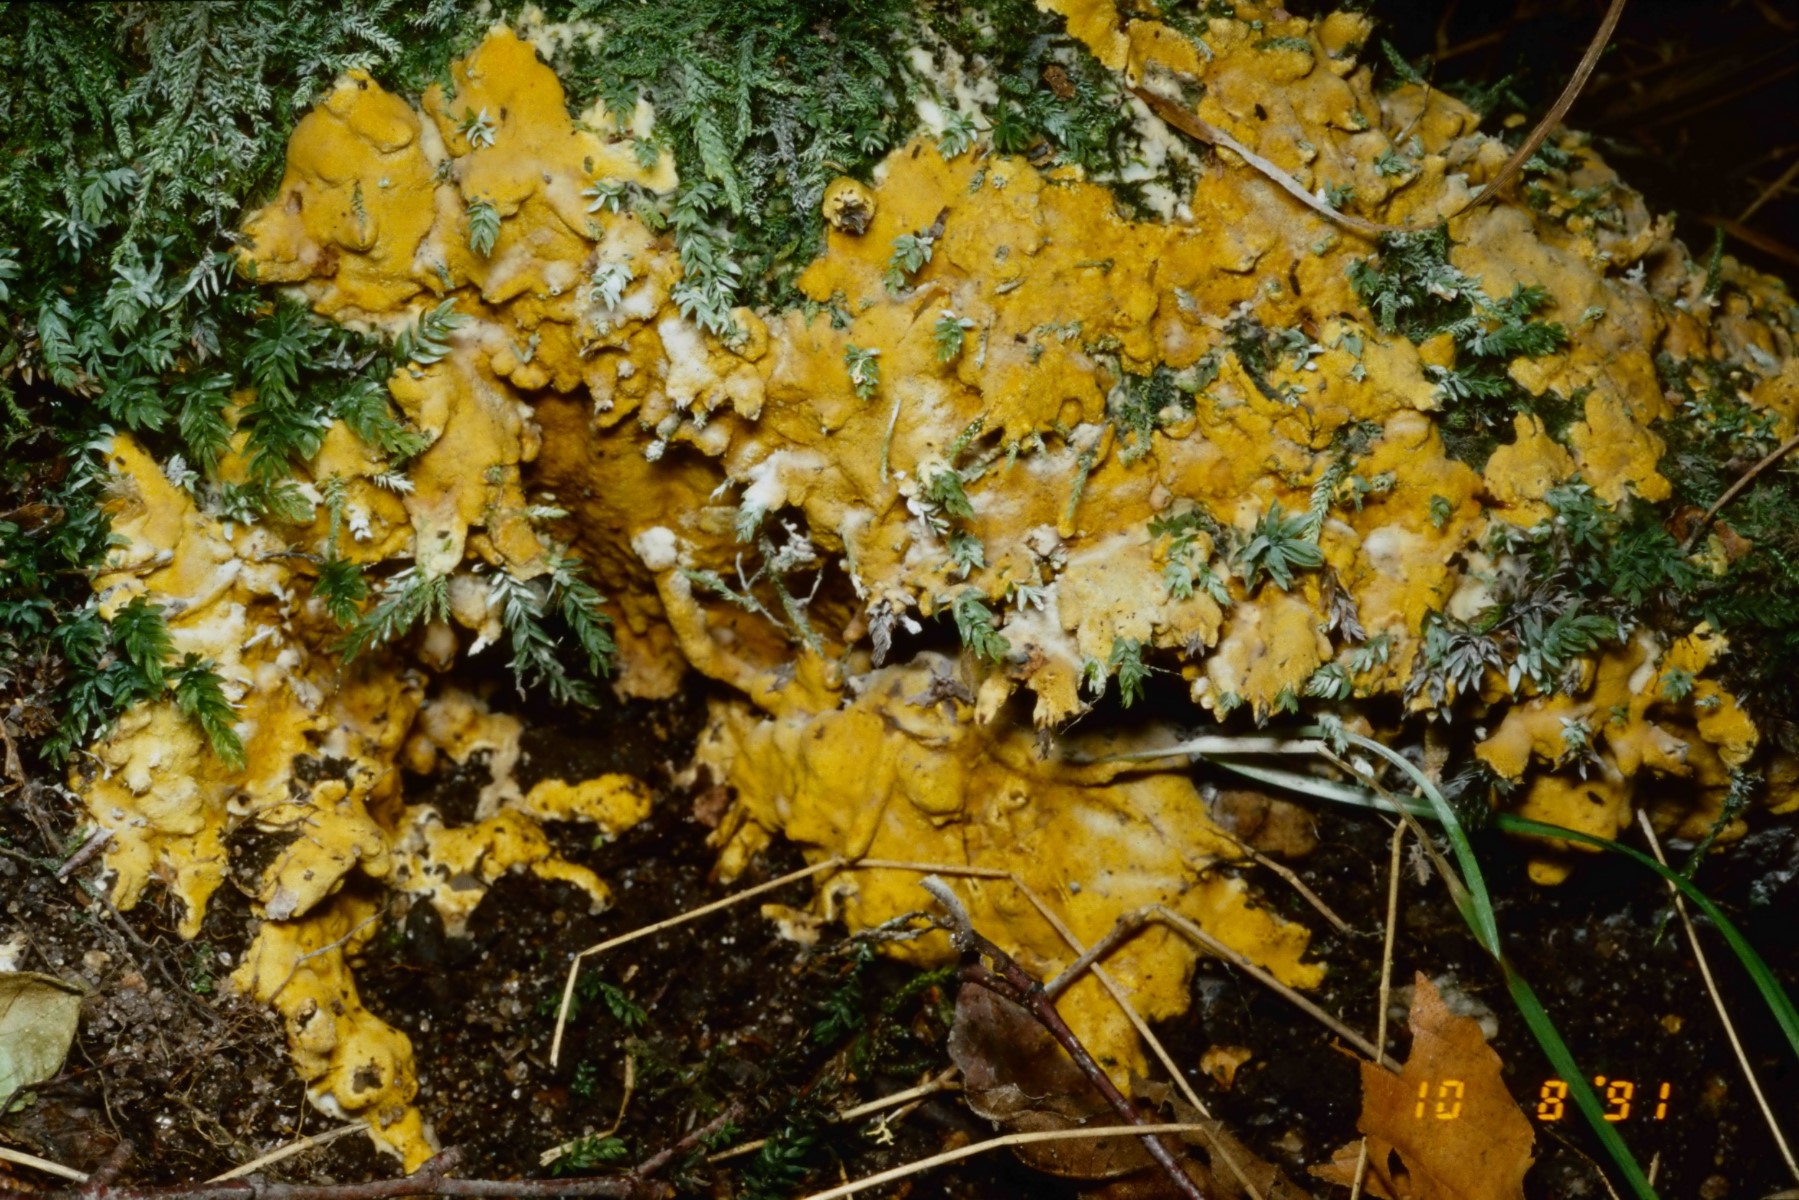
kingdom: Fungi
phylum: Ascomycota
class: Sordariomycetes
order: Hypocreales
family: Hypocreaceae
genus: Trichoderma
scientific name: Trichoderma citrinum
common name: udbredt kødkerne
